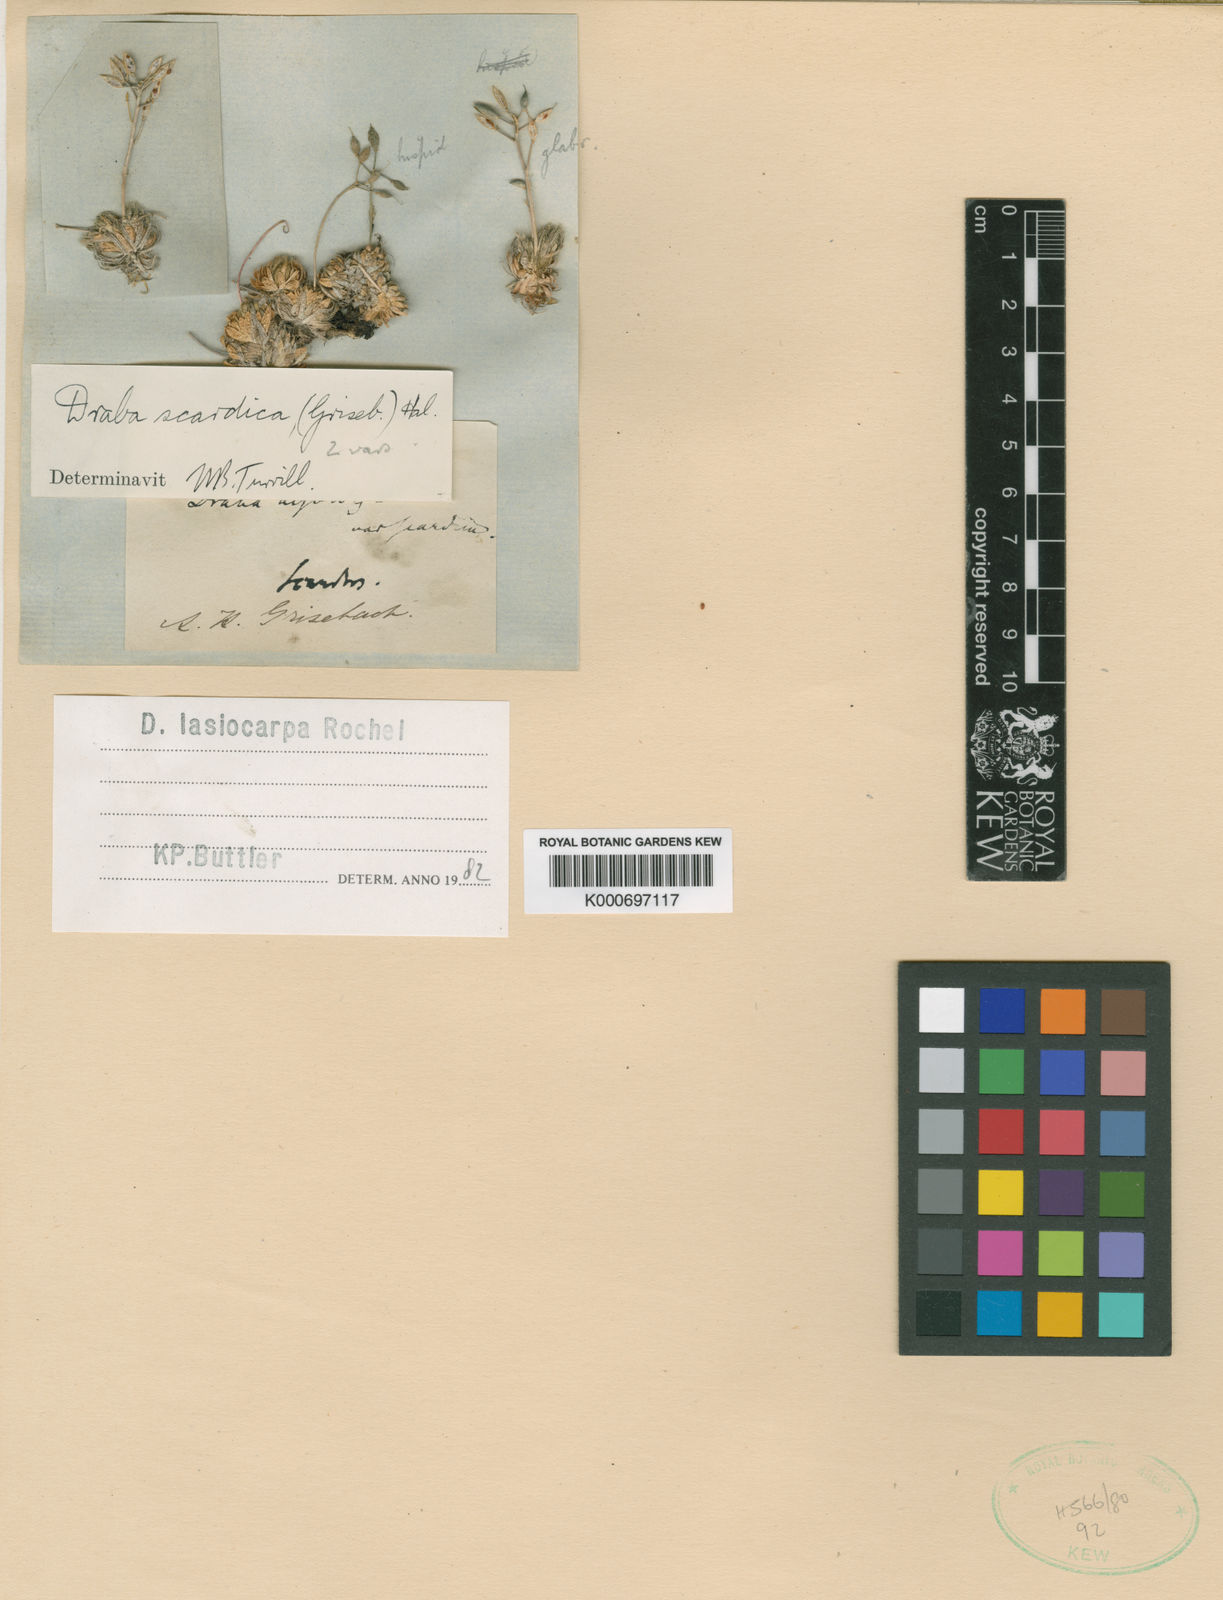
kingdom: Plantae
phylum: Tracheophyta
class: Magnoliopsida
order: Brassicales
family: Brassicaceae
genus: Draba
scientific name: Draba lasiocarpa
